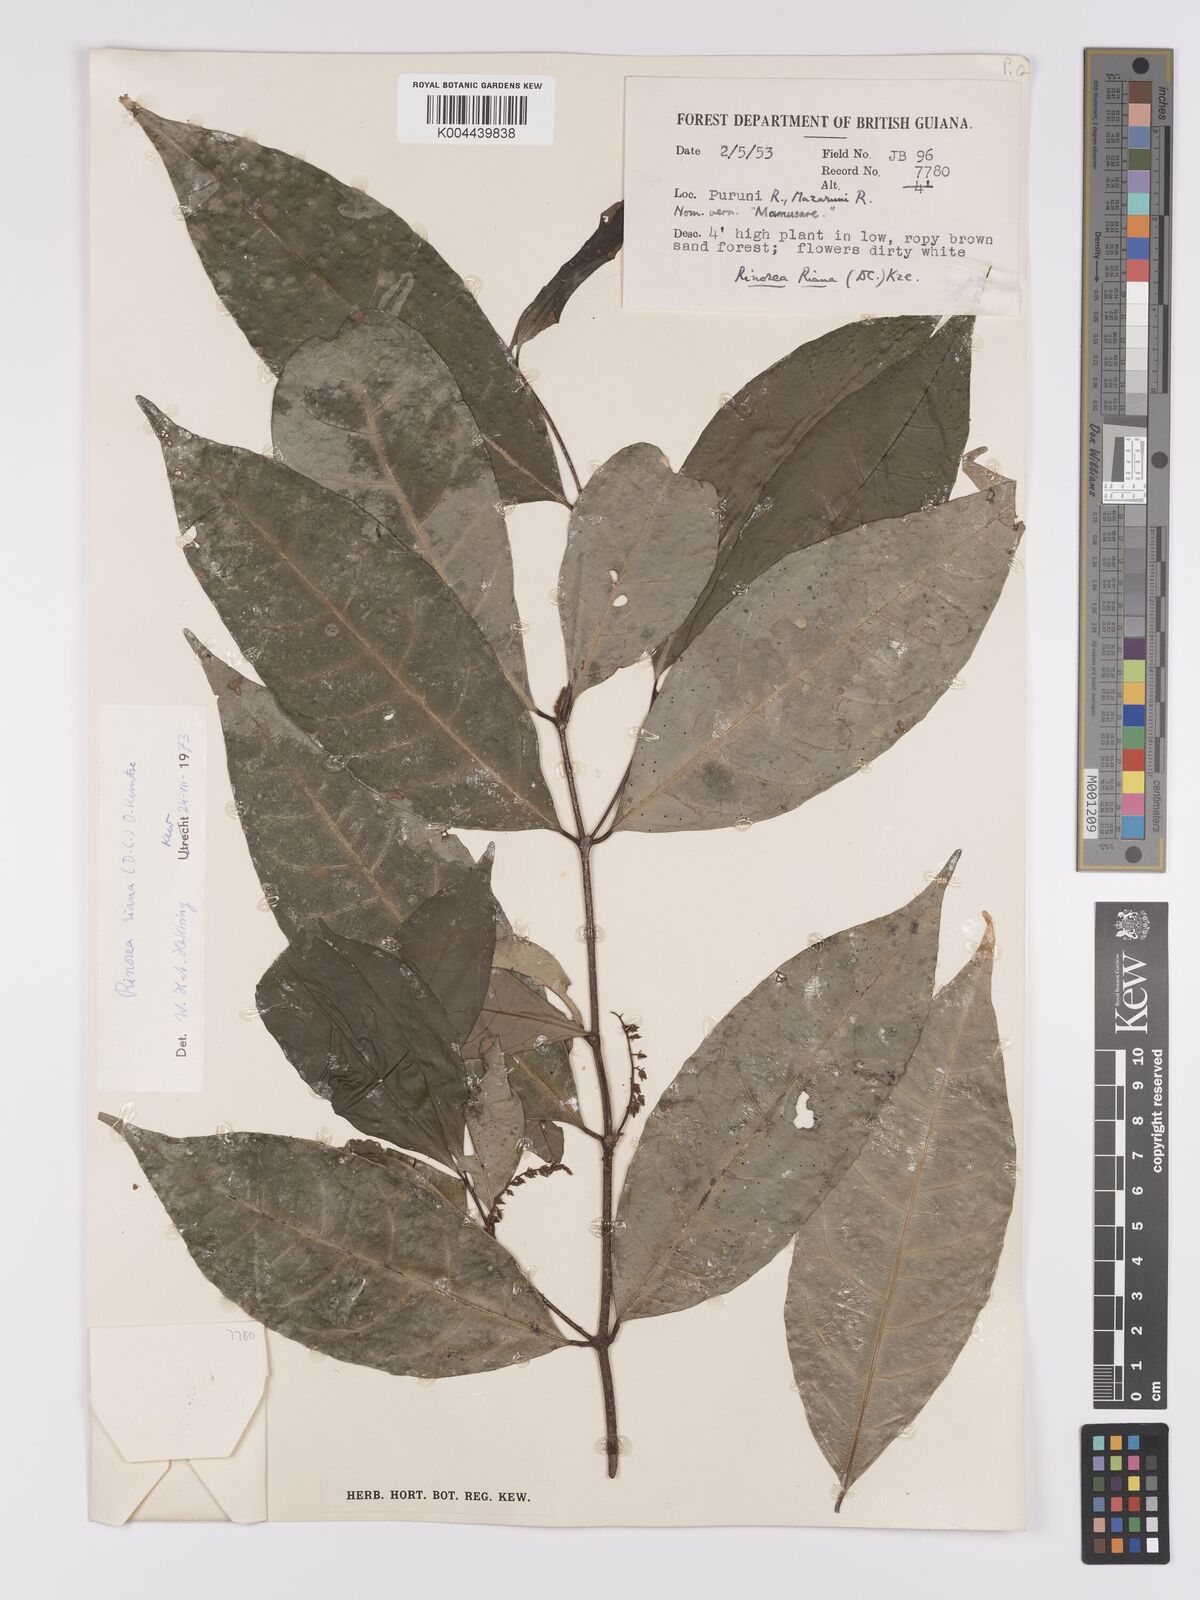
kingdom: Plantae
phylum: Tracheophyta
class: Magnoliopsida
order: Malpighiales
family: Violaceae
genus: Rinorea
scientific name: Rinorea riana
